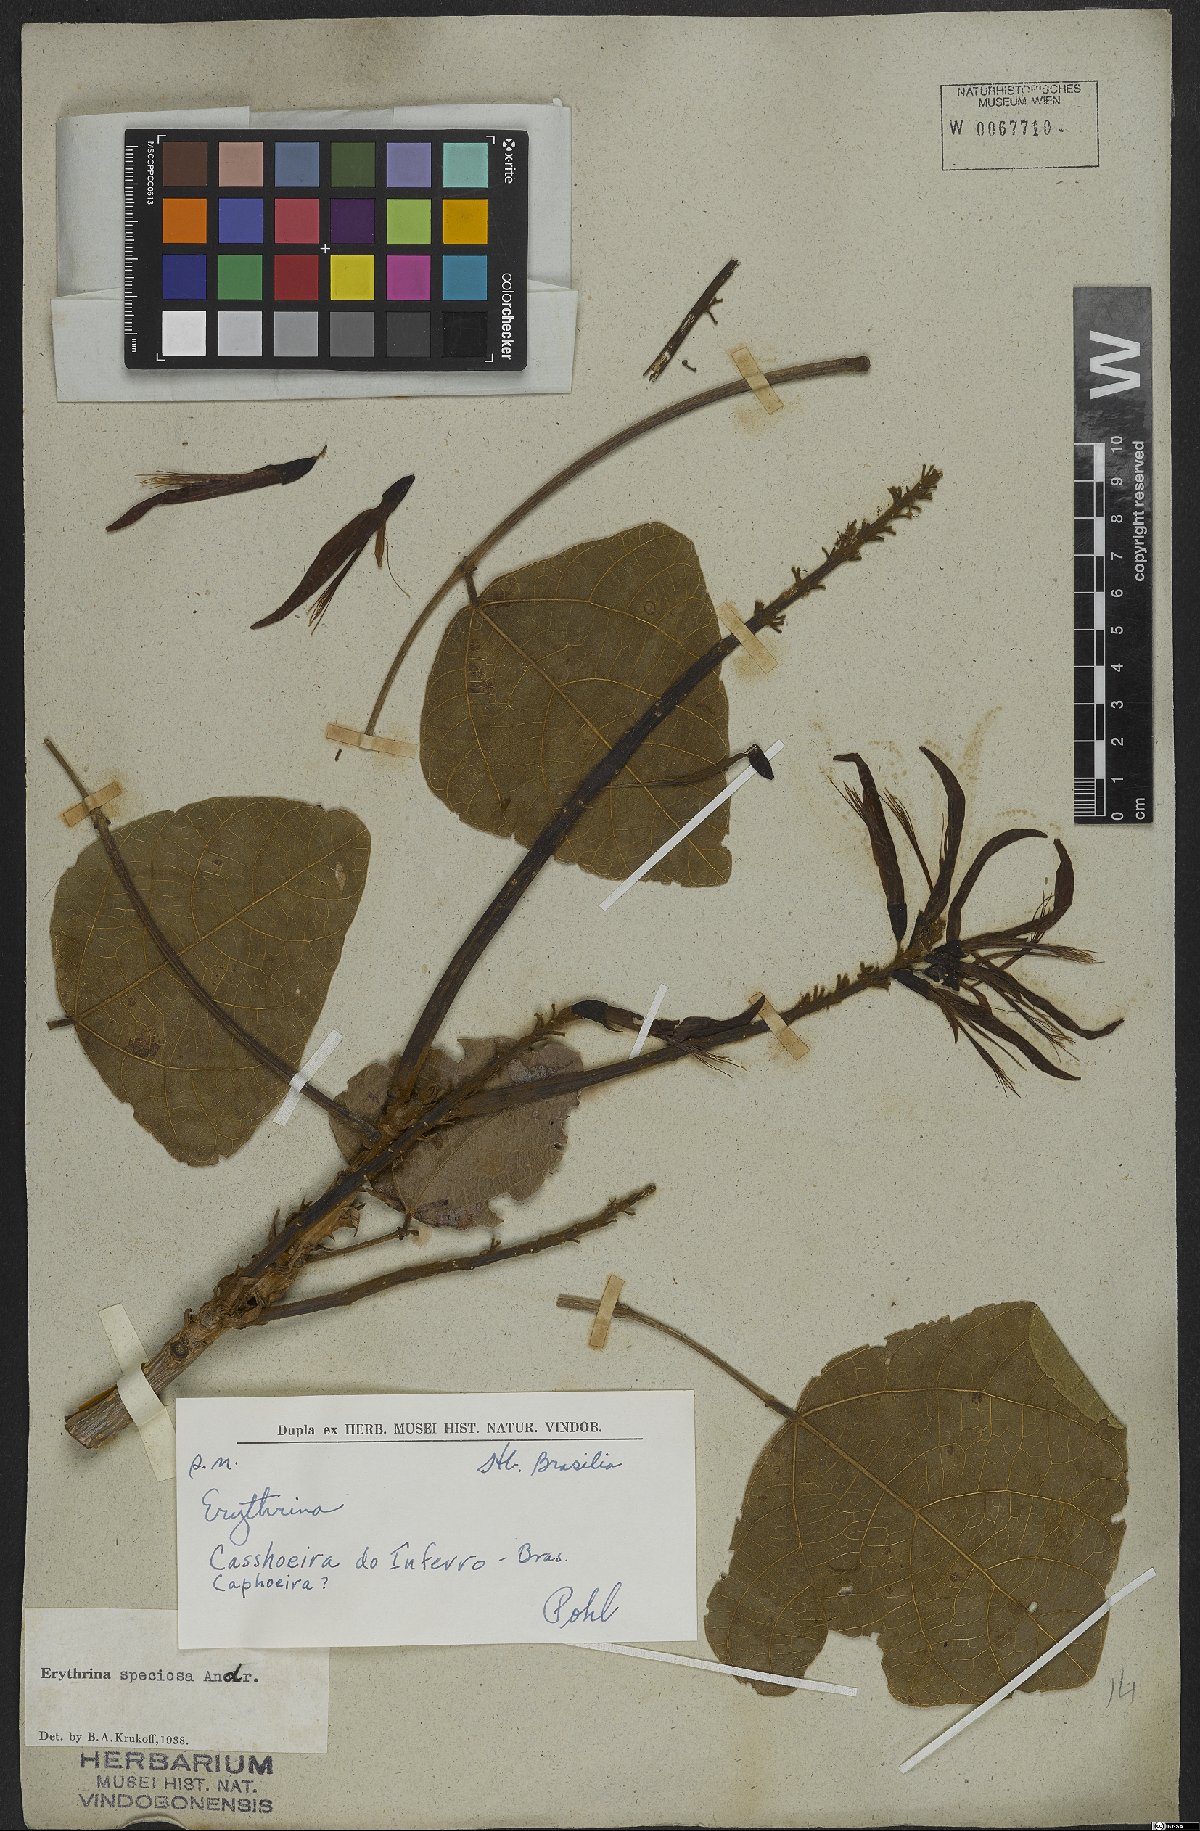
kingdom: Plantae
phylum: Tracheophyta
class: Magnoliopsida
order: Fabales
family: Fabaceae
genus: Erythrina
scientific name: Erythrina speciosa
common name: Coral tree
